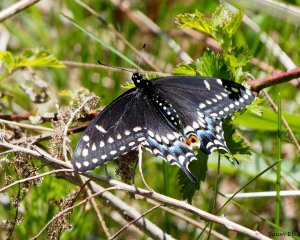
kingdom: Animalia
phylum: Arthropoda
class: Insecta
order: Lepidoptera
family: Papilionidae
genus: Papilio
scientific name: Papilio polyxenes
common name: Black Swallowtail
